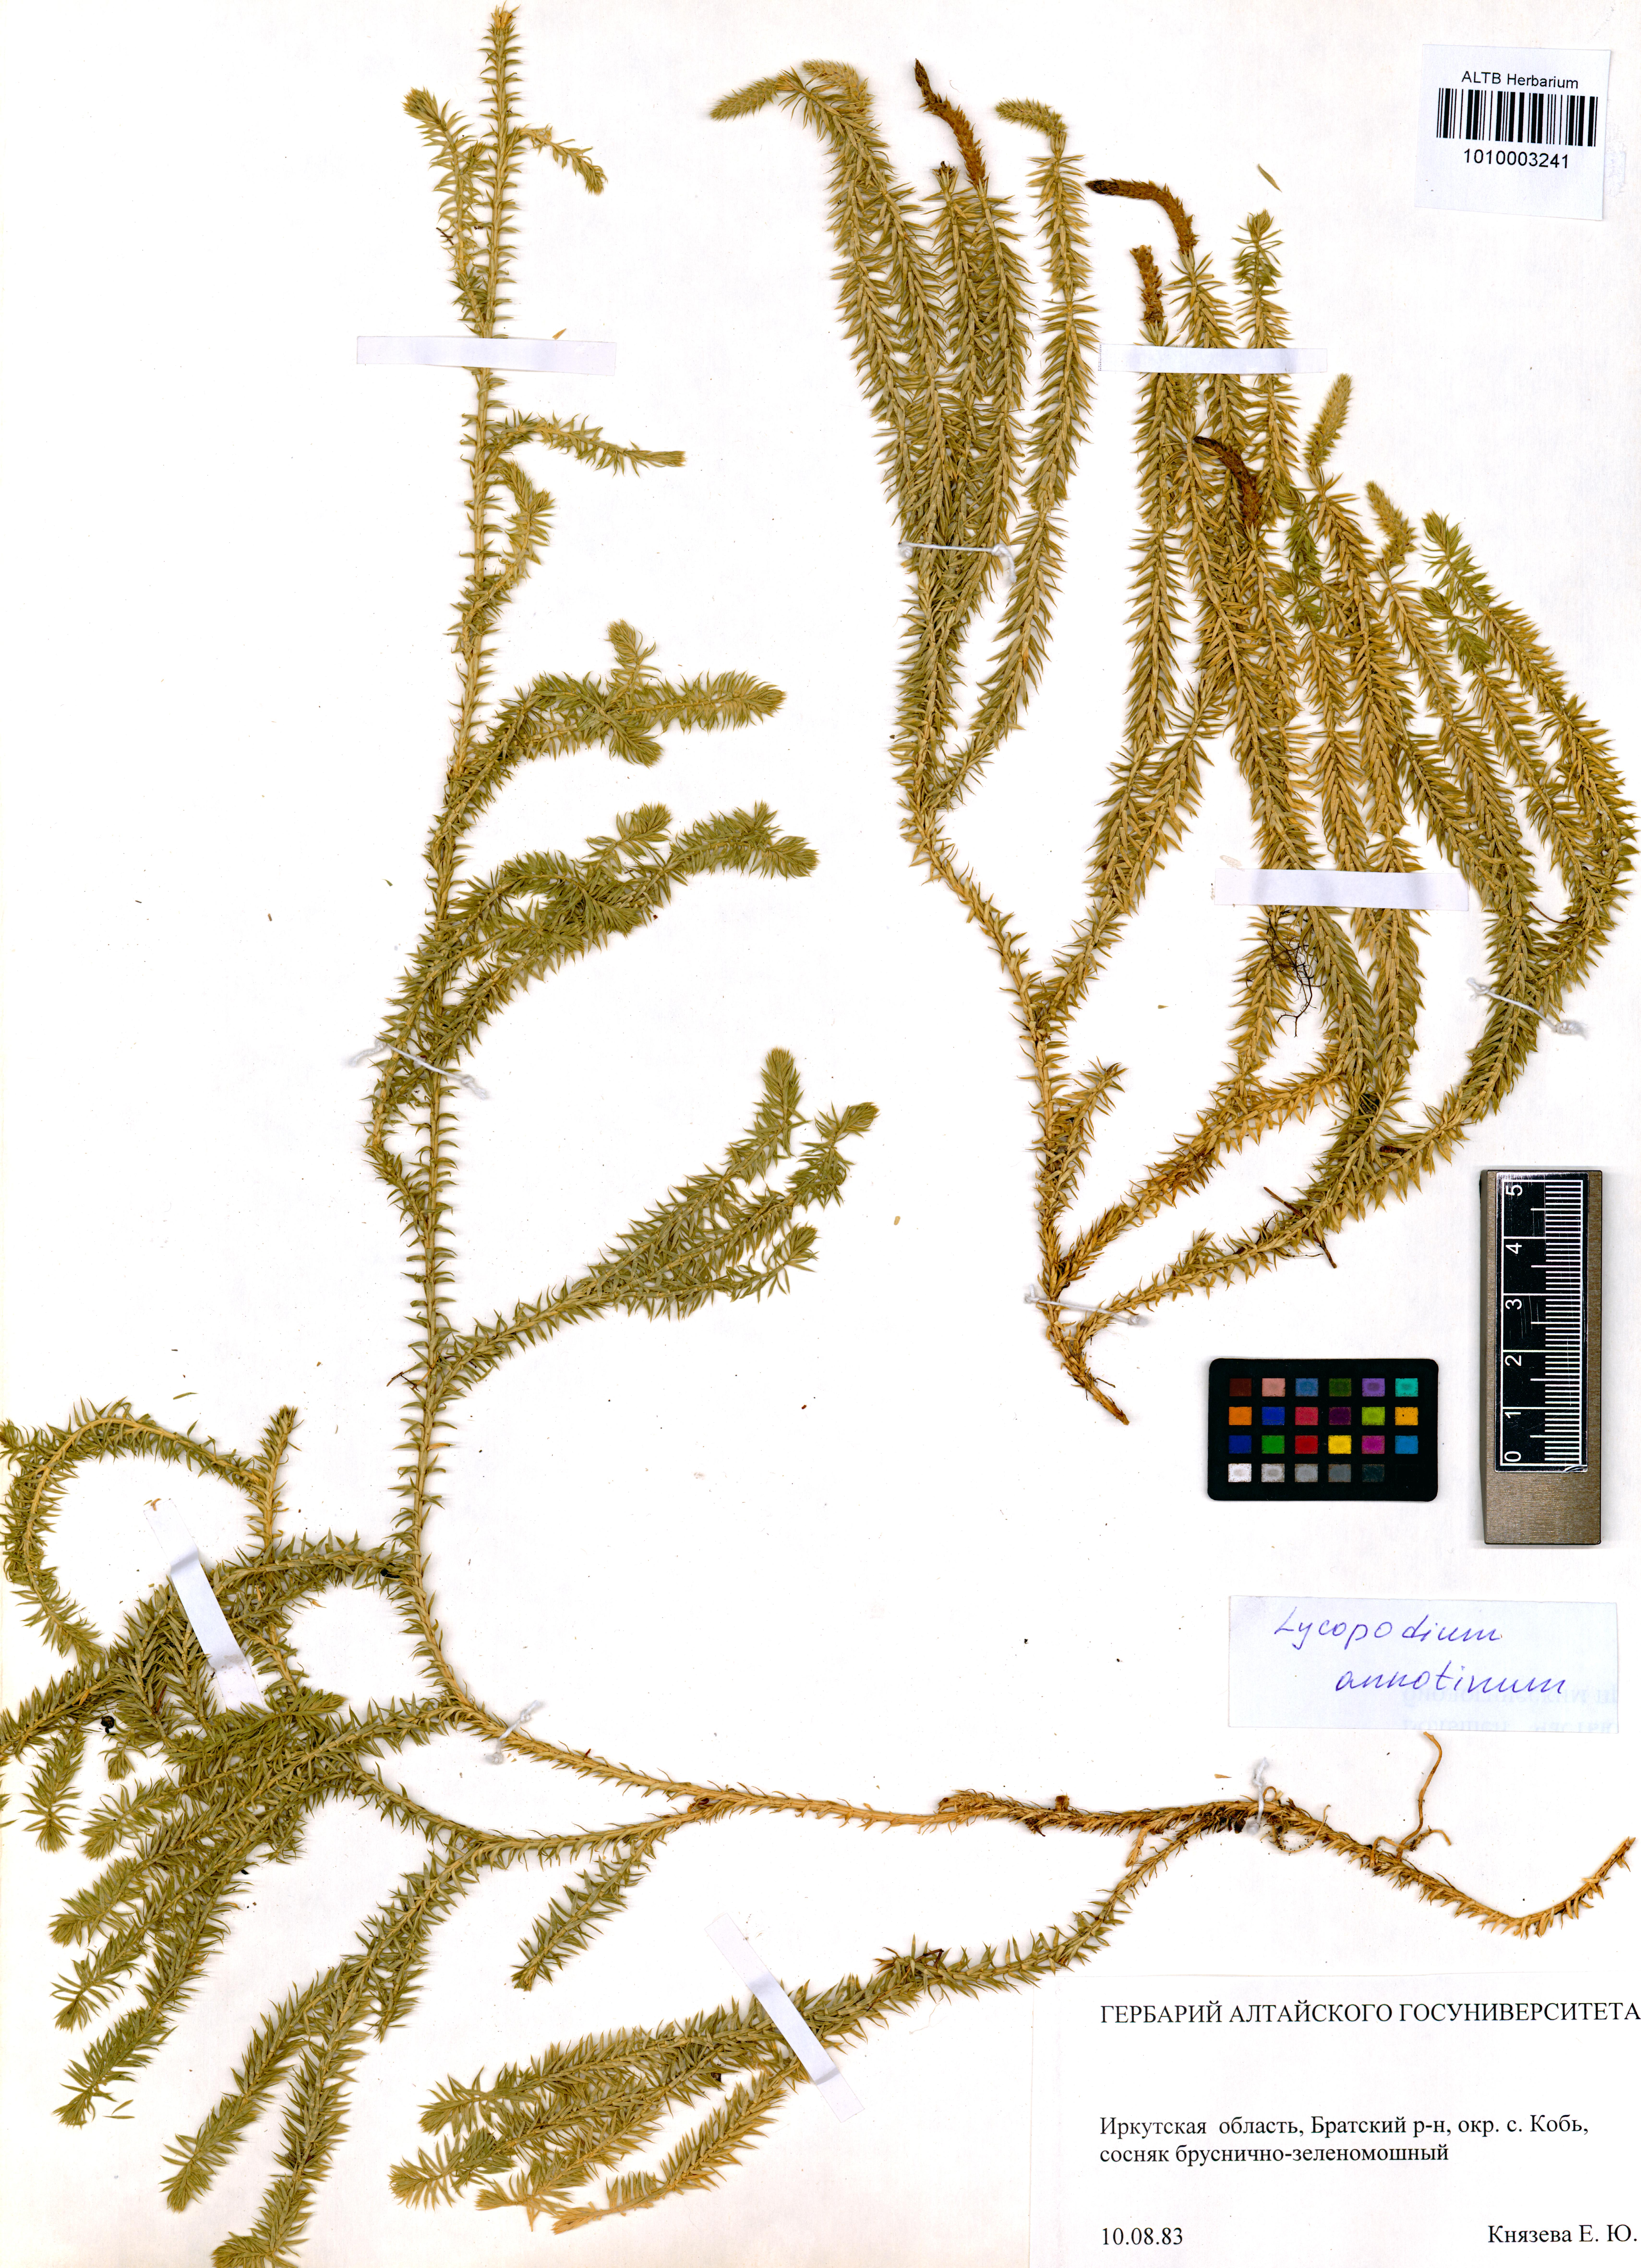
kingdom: Plantae
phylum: Tracheophyta
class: Lycopodiopsida
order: Lycopodiales
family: Lycopodiaceae
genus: Spinulum
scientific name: Spinulum annotinum
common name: Interrupted club-moss
